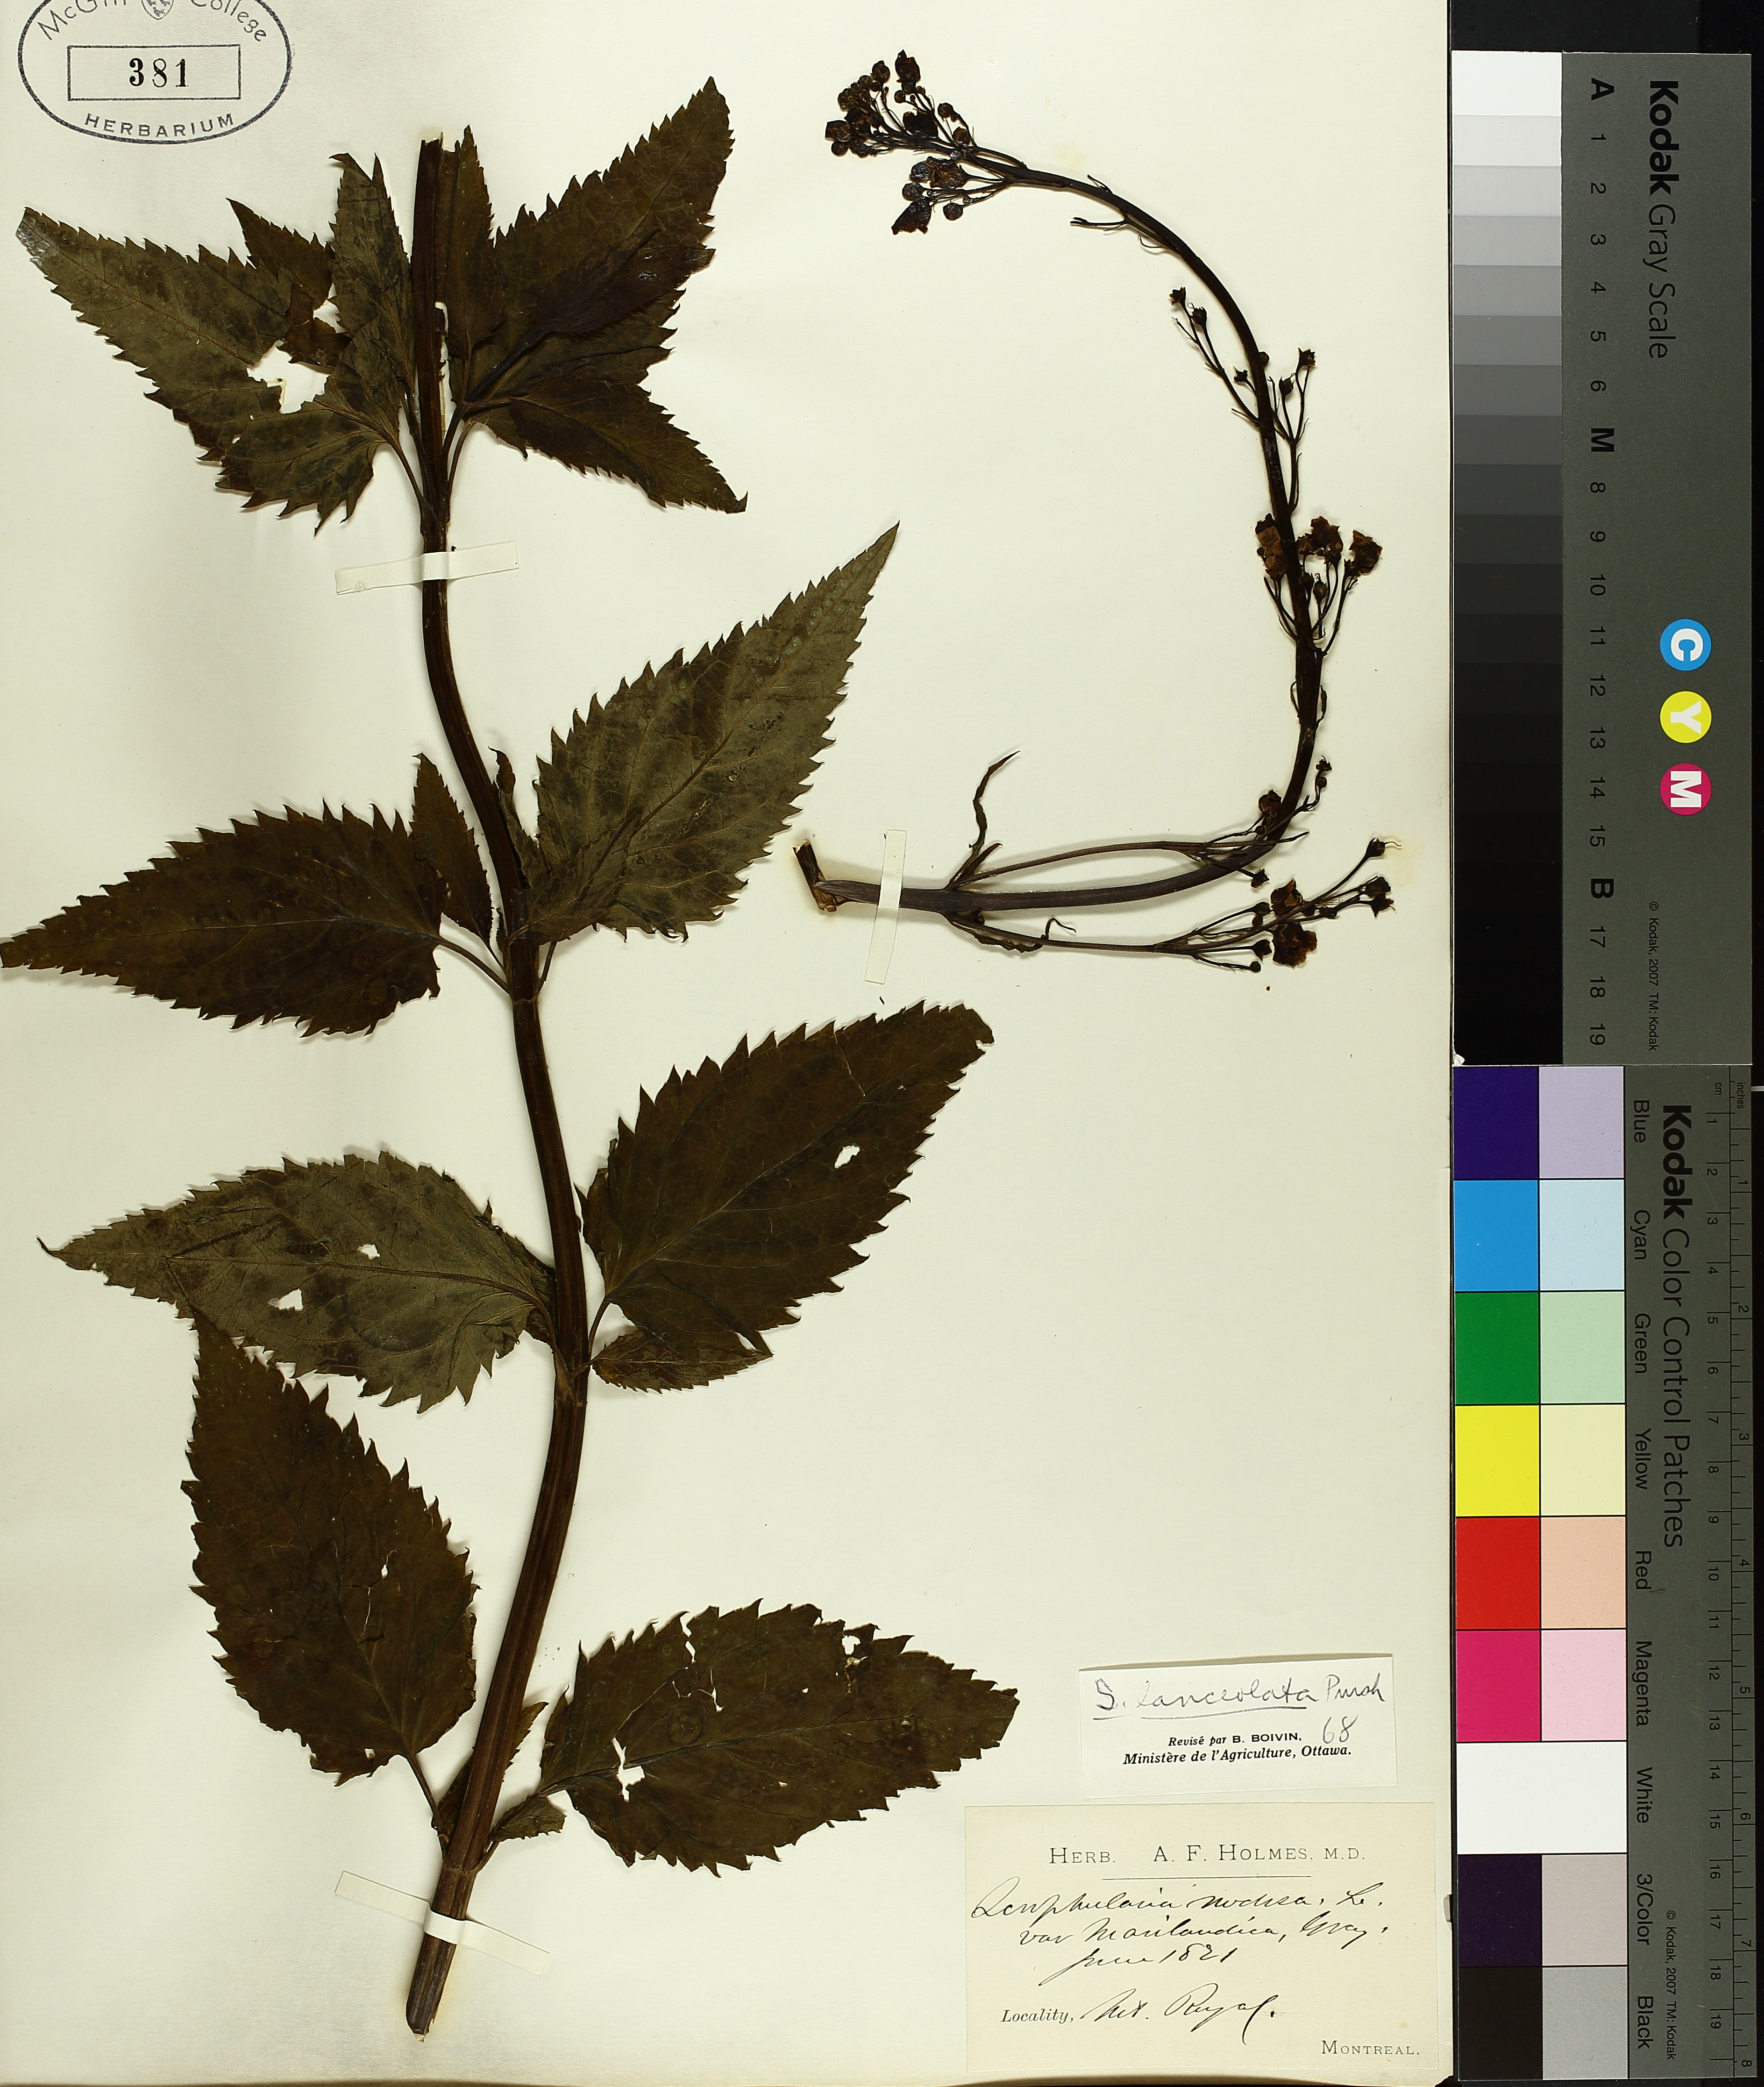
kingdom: Plantae
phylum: Tracheophyta
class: Magnoliopsida
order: Lamiales
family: Scrophulariaceae
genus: Scrophularia
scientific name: Scrophularia lanceolata
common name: American figwort
